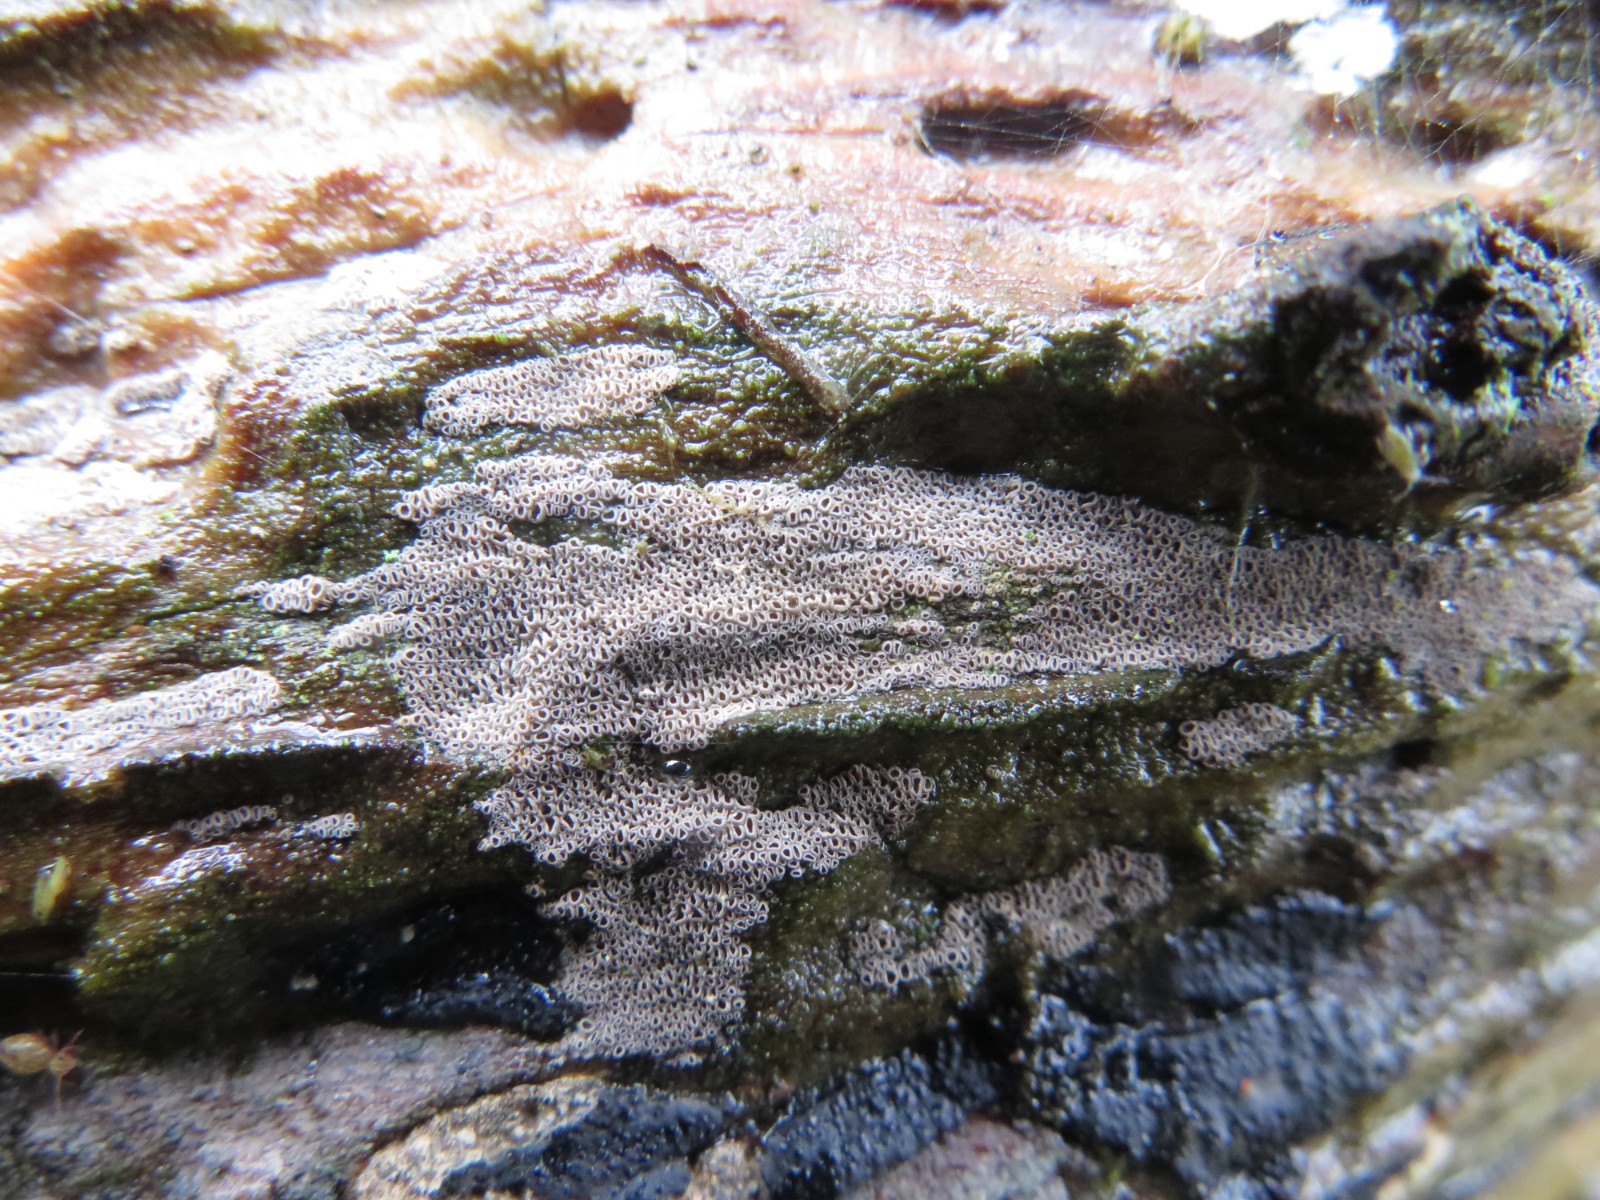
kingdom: Fungi
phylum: Basidiomycota
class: Agaricomycetes
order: Agaricales
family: Niaceae
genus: Merismodes
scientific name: Merismodes anomala
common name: almindelig læderskål
